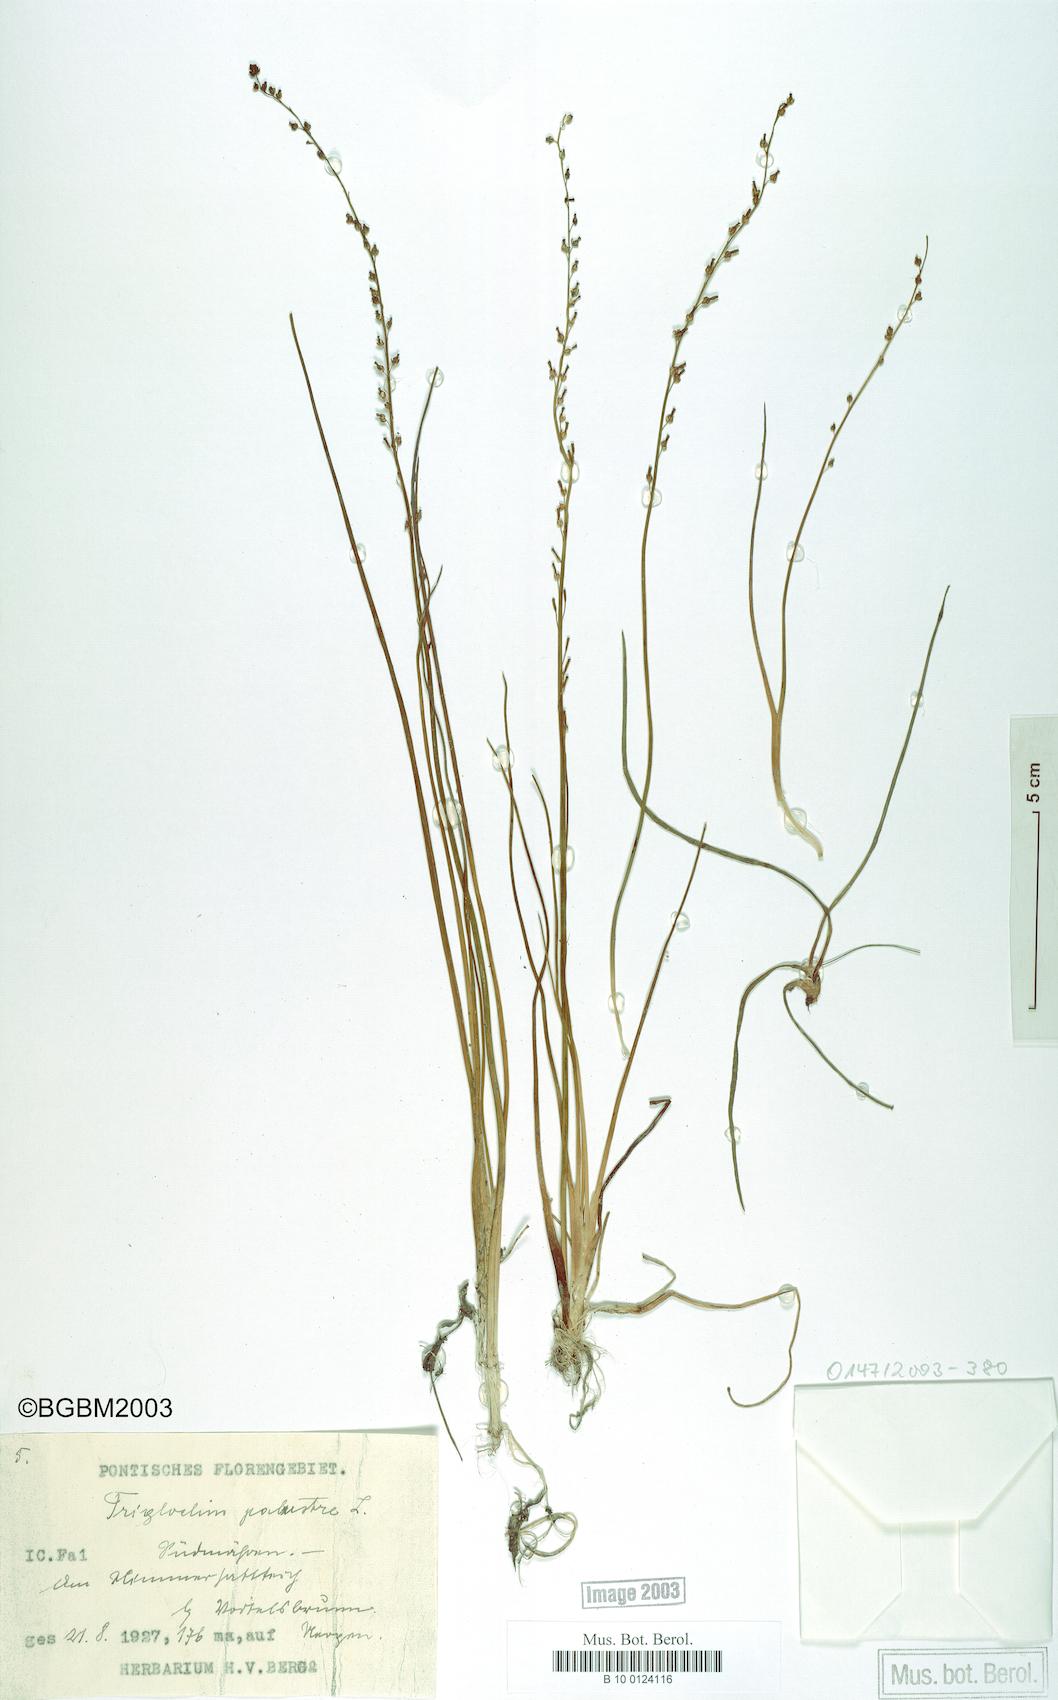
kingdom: Plantae
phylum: Tracheophyta
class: Liliopsida
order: Alismatales
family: Juncaginaceae
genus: Triglochin
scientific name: Triglochin palustris
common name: Marsh arrowgrass
